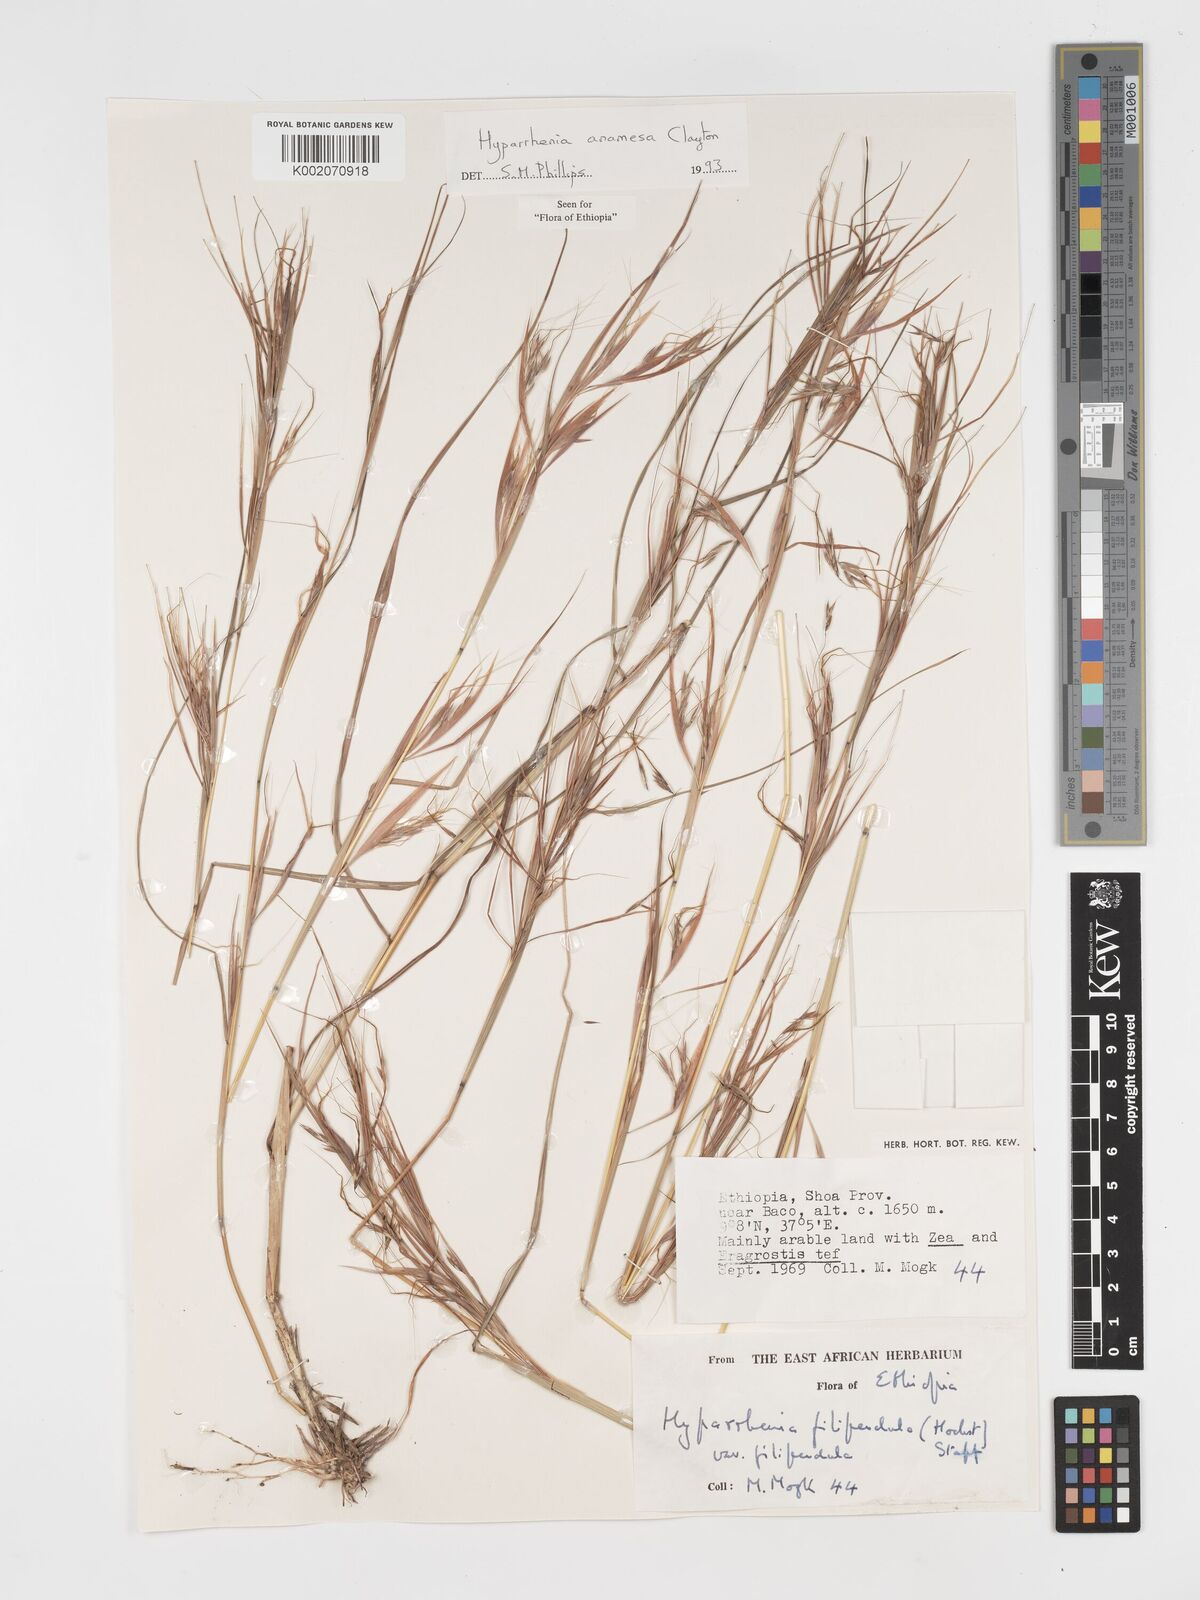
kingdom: Plantae
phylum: Tracheophyta
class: Liliopsida
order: Poales
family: Poaceae
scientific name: Poaceae
